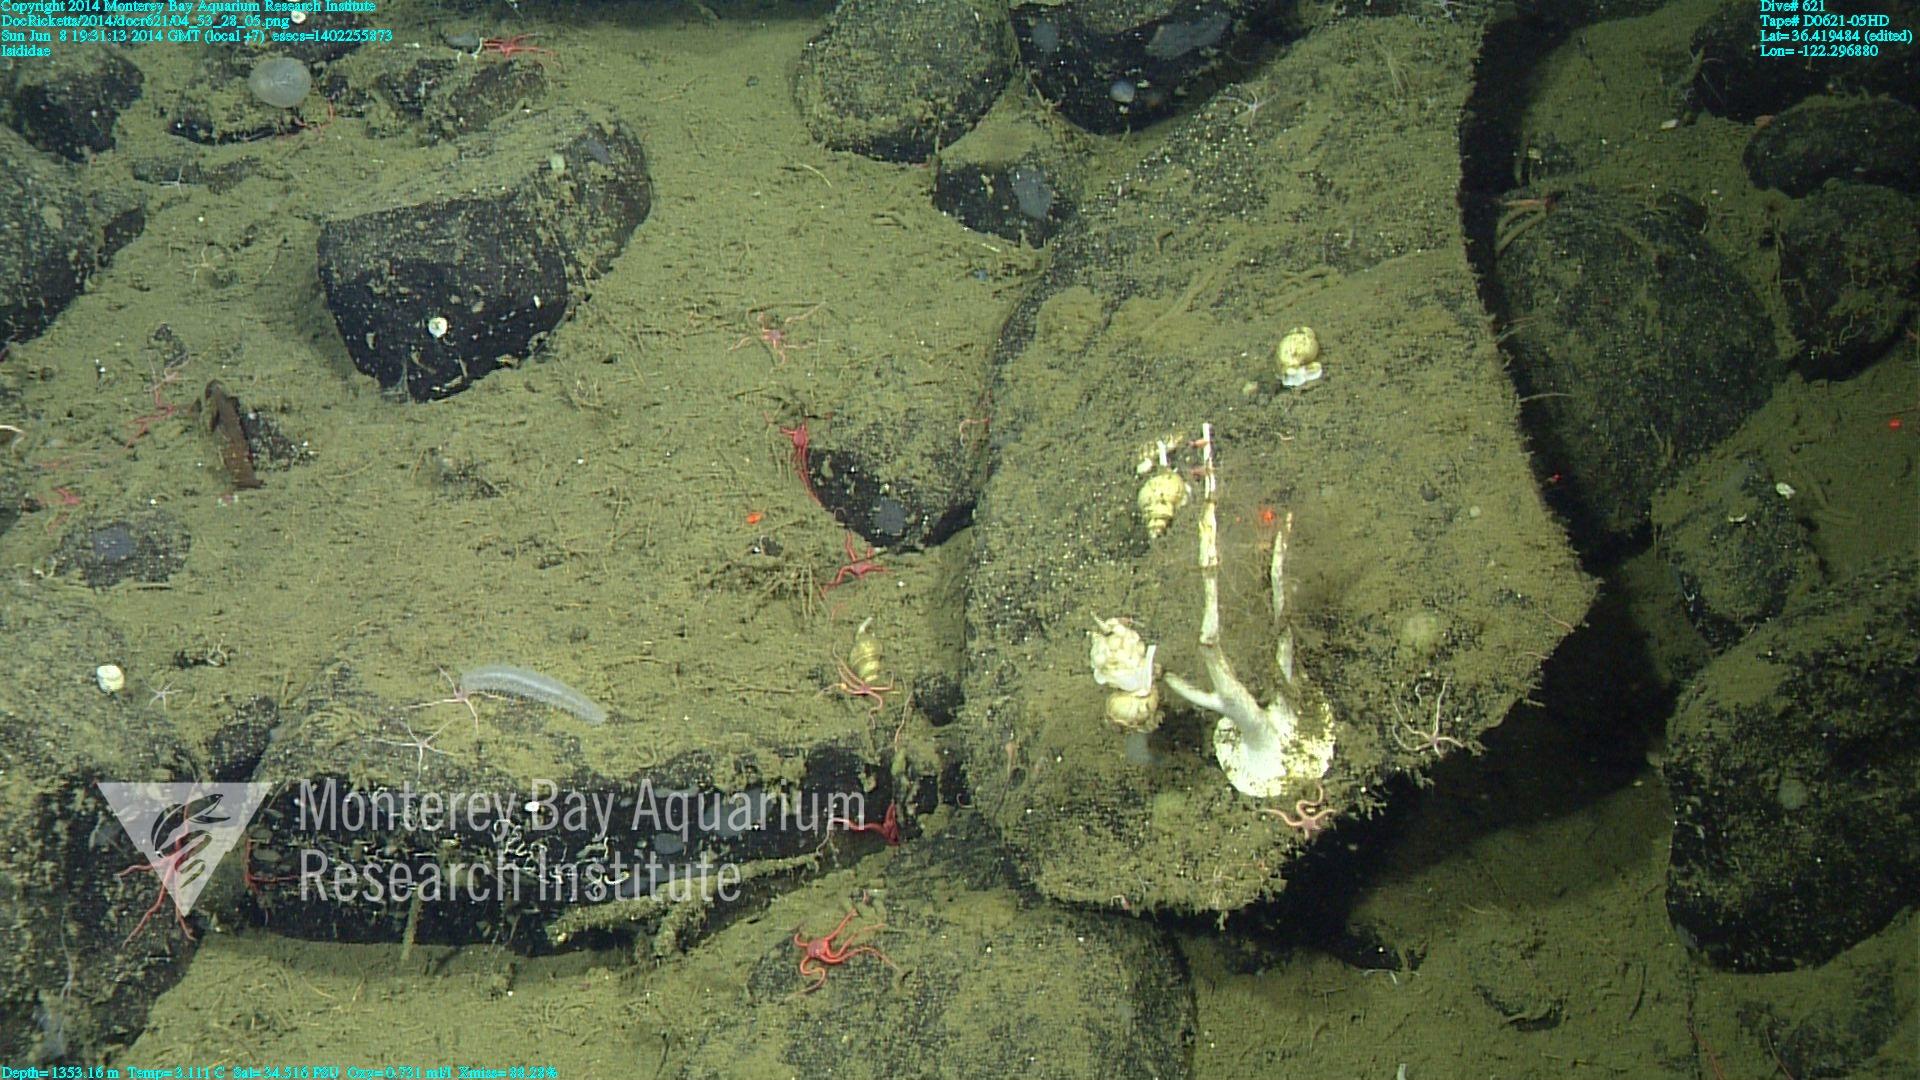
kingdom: Animalia
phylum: Cnidaria
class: Anthozoa
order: Scleralcyonacea
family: Keratoisididae
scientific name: Keratoisididae
